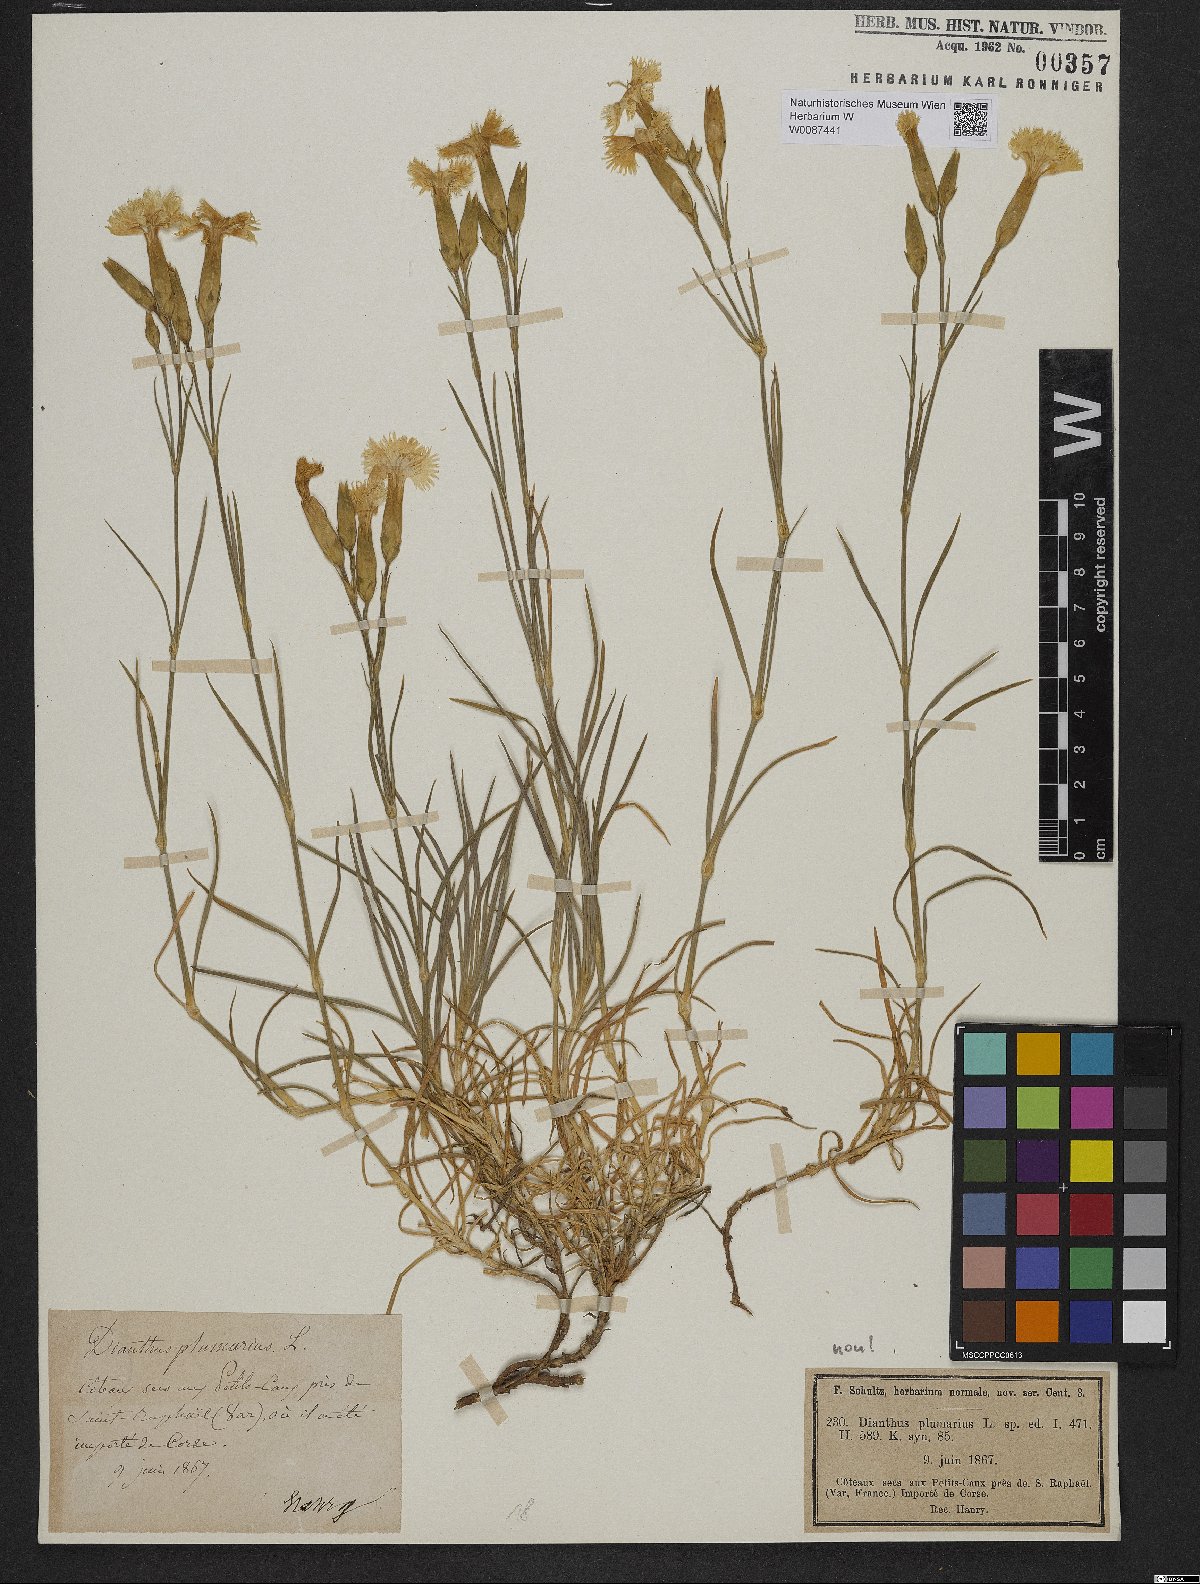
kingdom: Plantae
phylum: Tracheophyta
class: Magnoliopsida
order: Caryophyllales
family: Caryophyllaceae
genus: Dianthus
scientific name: Dianthus caryophyllus
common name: Clove pink
